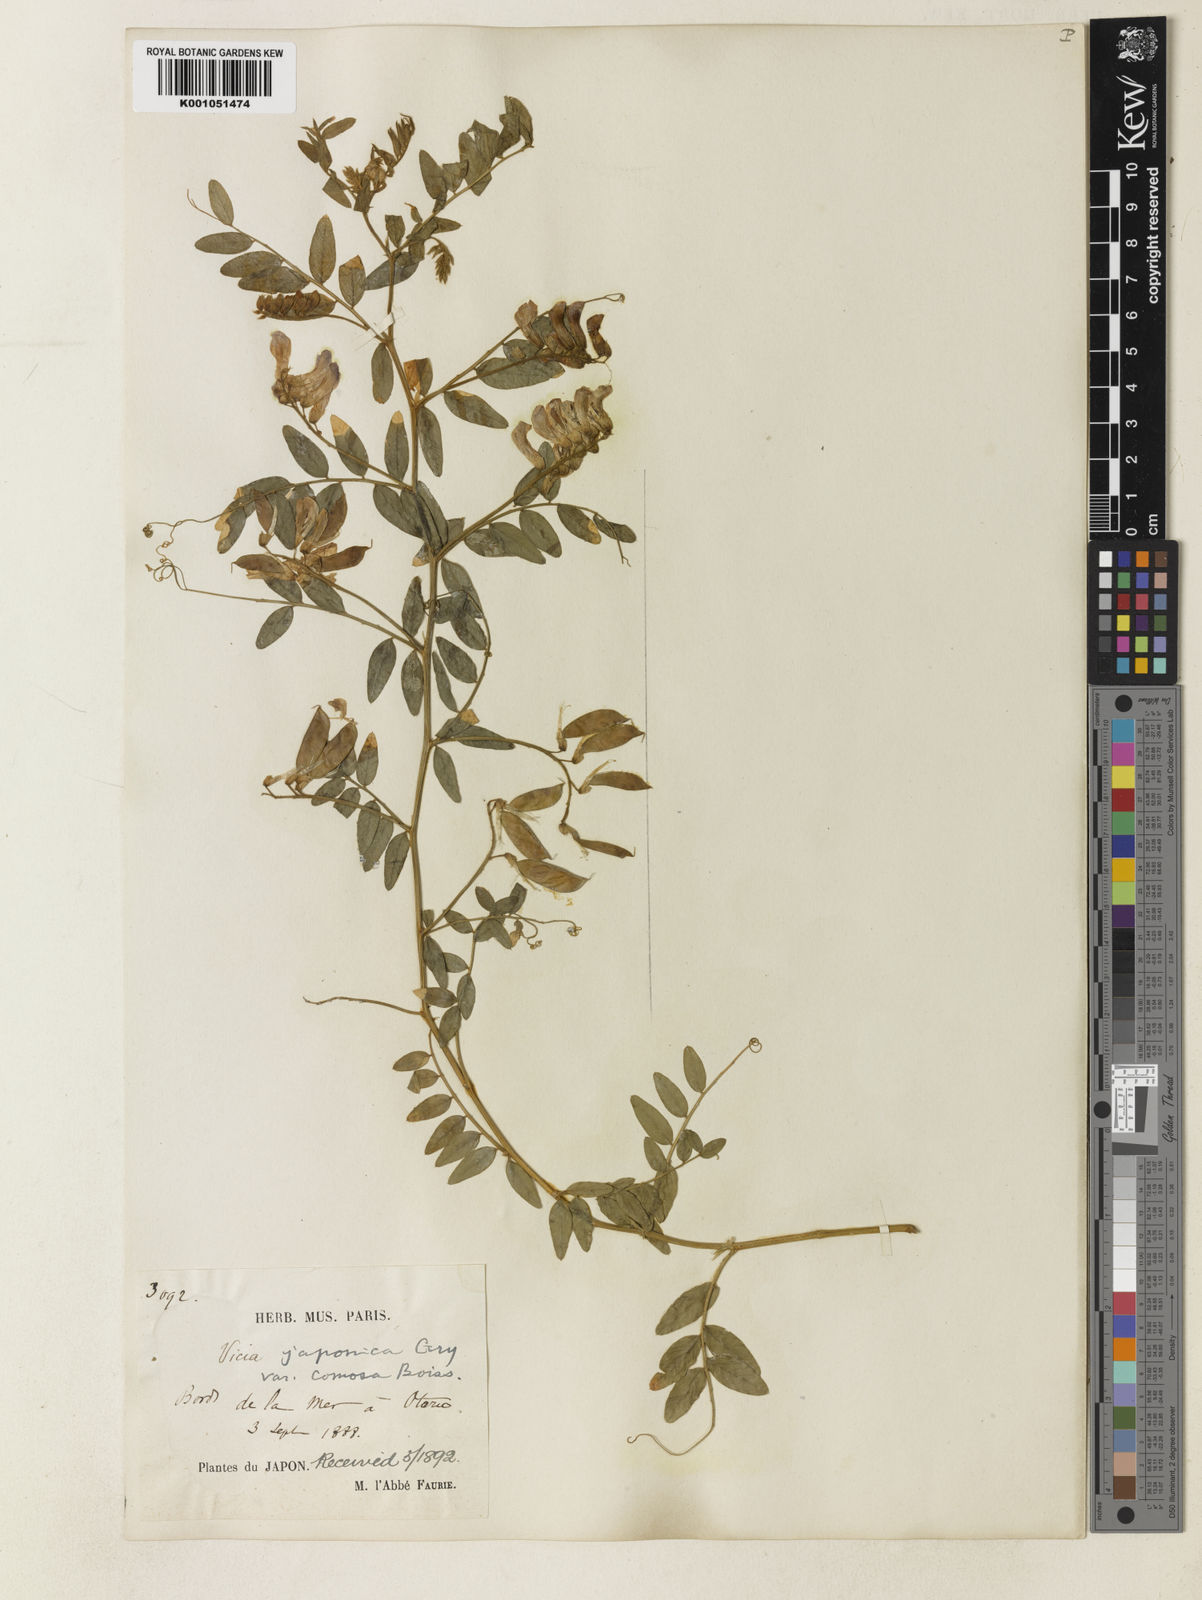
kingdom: Plantae
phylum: Tracheophyta
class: Magnoliopsida
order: Fabales
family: Fabaceae
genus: Vicia
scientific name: Vicia japonica
